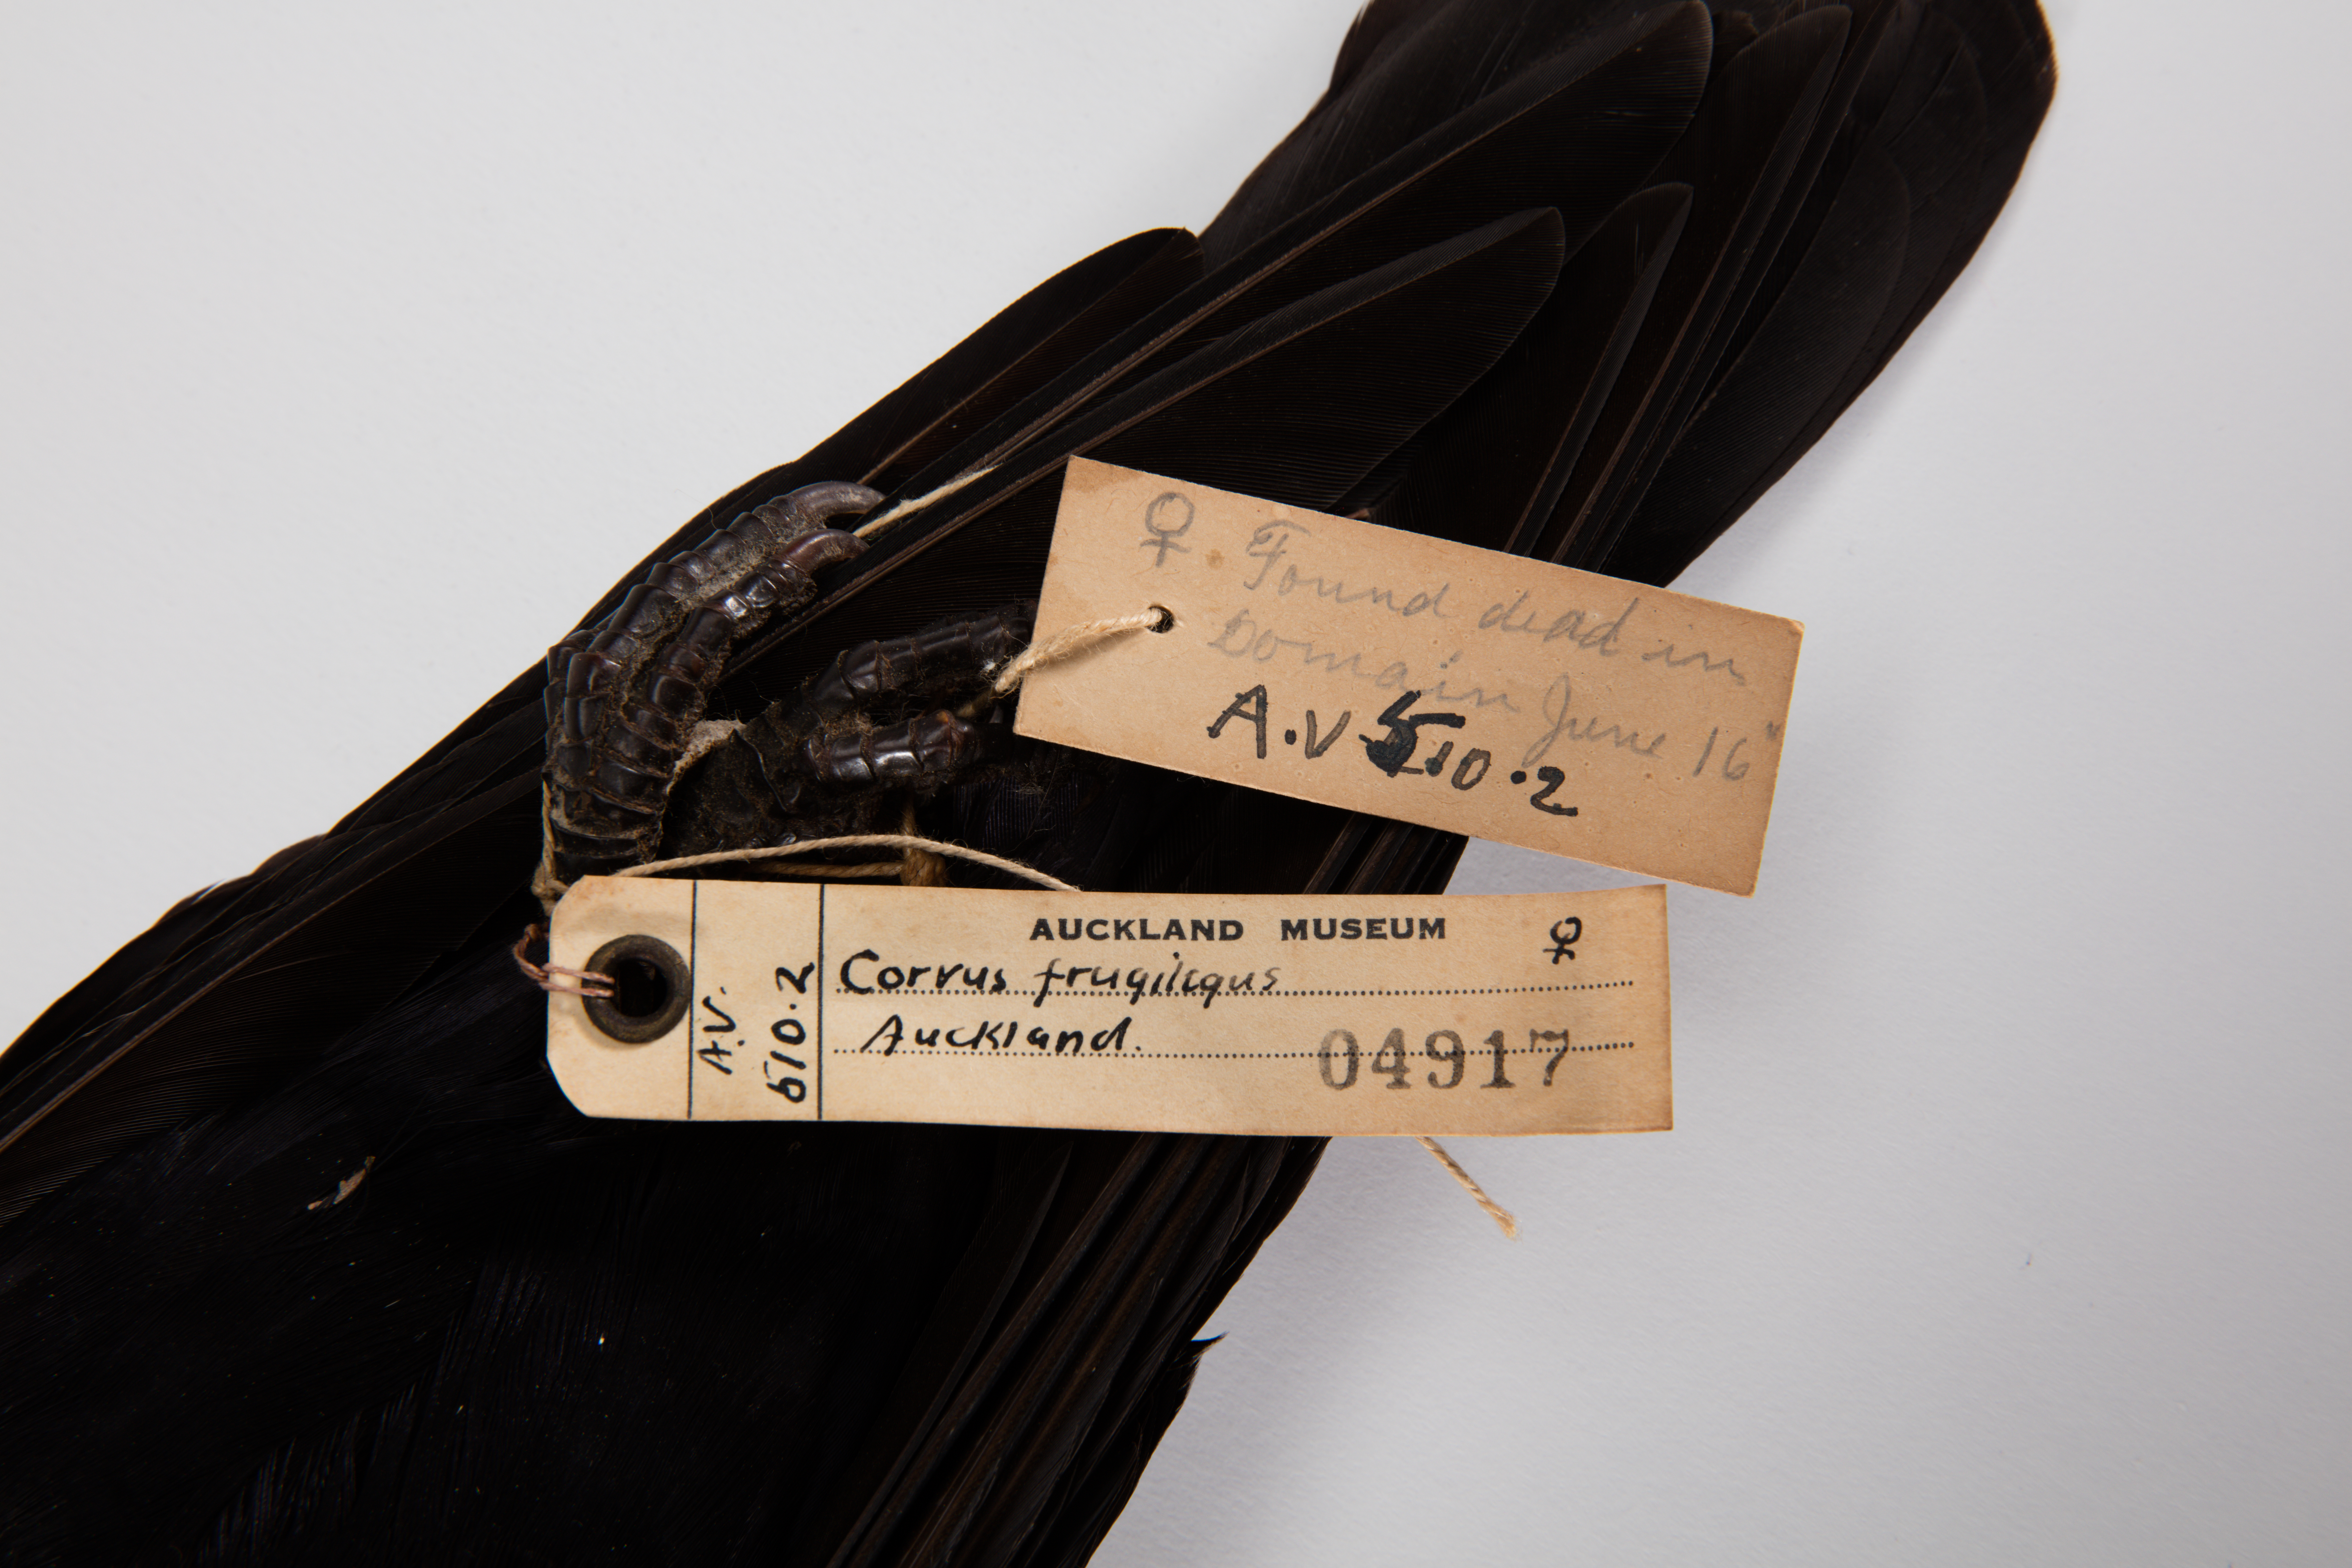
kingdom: Animalia
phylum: Chordata
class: Aves
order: Passeriformes
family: Corvidae
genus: Corvus
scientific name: Corvus frugilegus
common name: Rook
